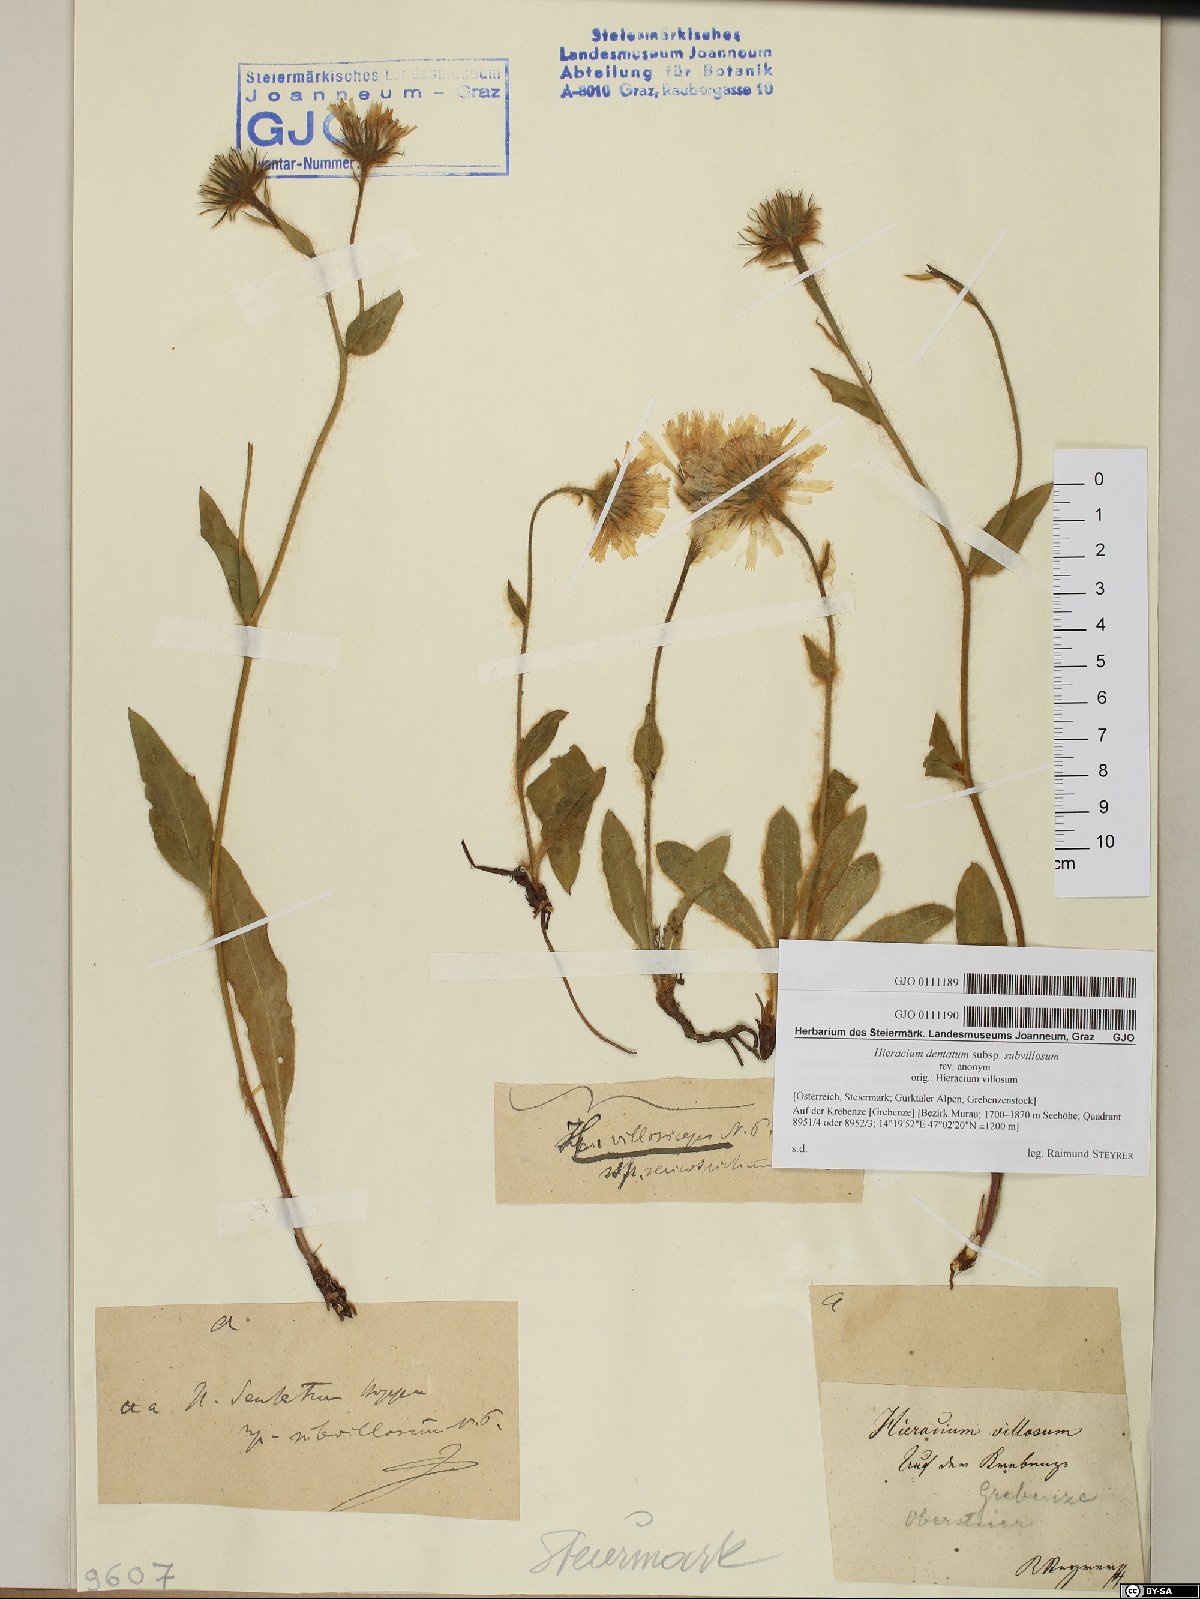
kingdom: Plantae
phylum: Tracheophyta
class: Magnoliopsida
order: Asterales
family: Asteraceae
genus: Hieracium
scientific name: Hieracium pilosum
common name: Fimbriate-pitted hawkweed
